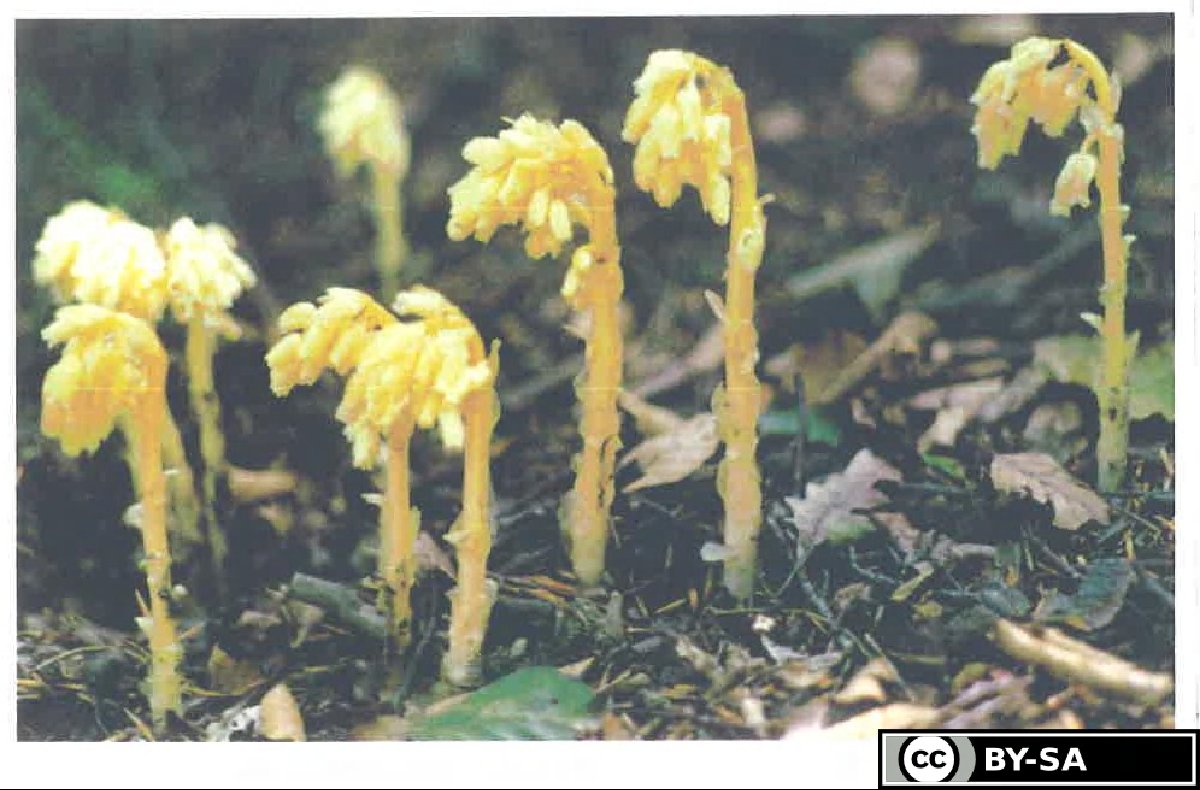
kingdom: Plantae
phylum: Tracheophyta
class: Magnoliopsida
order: Ericales
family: Ericaceae
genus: Hypopitys
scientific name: Hypopitys monotropa
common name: Yellow bird's-nest
